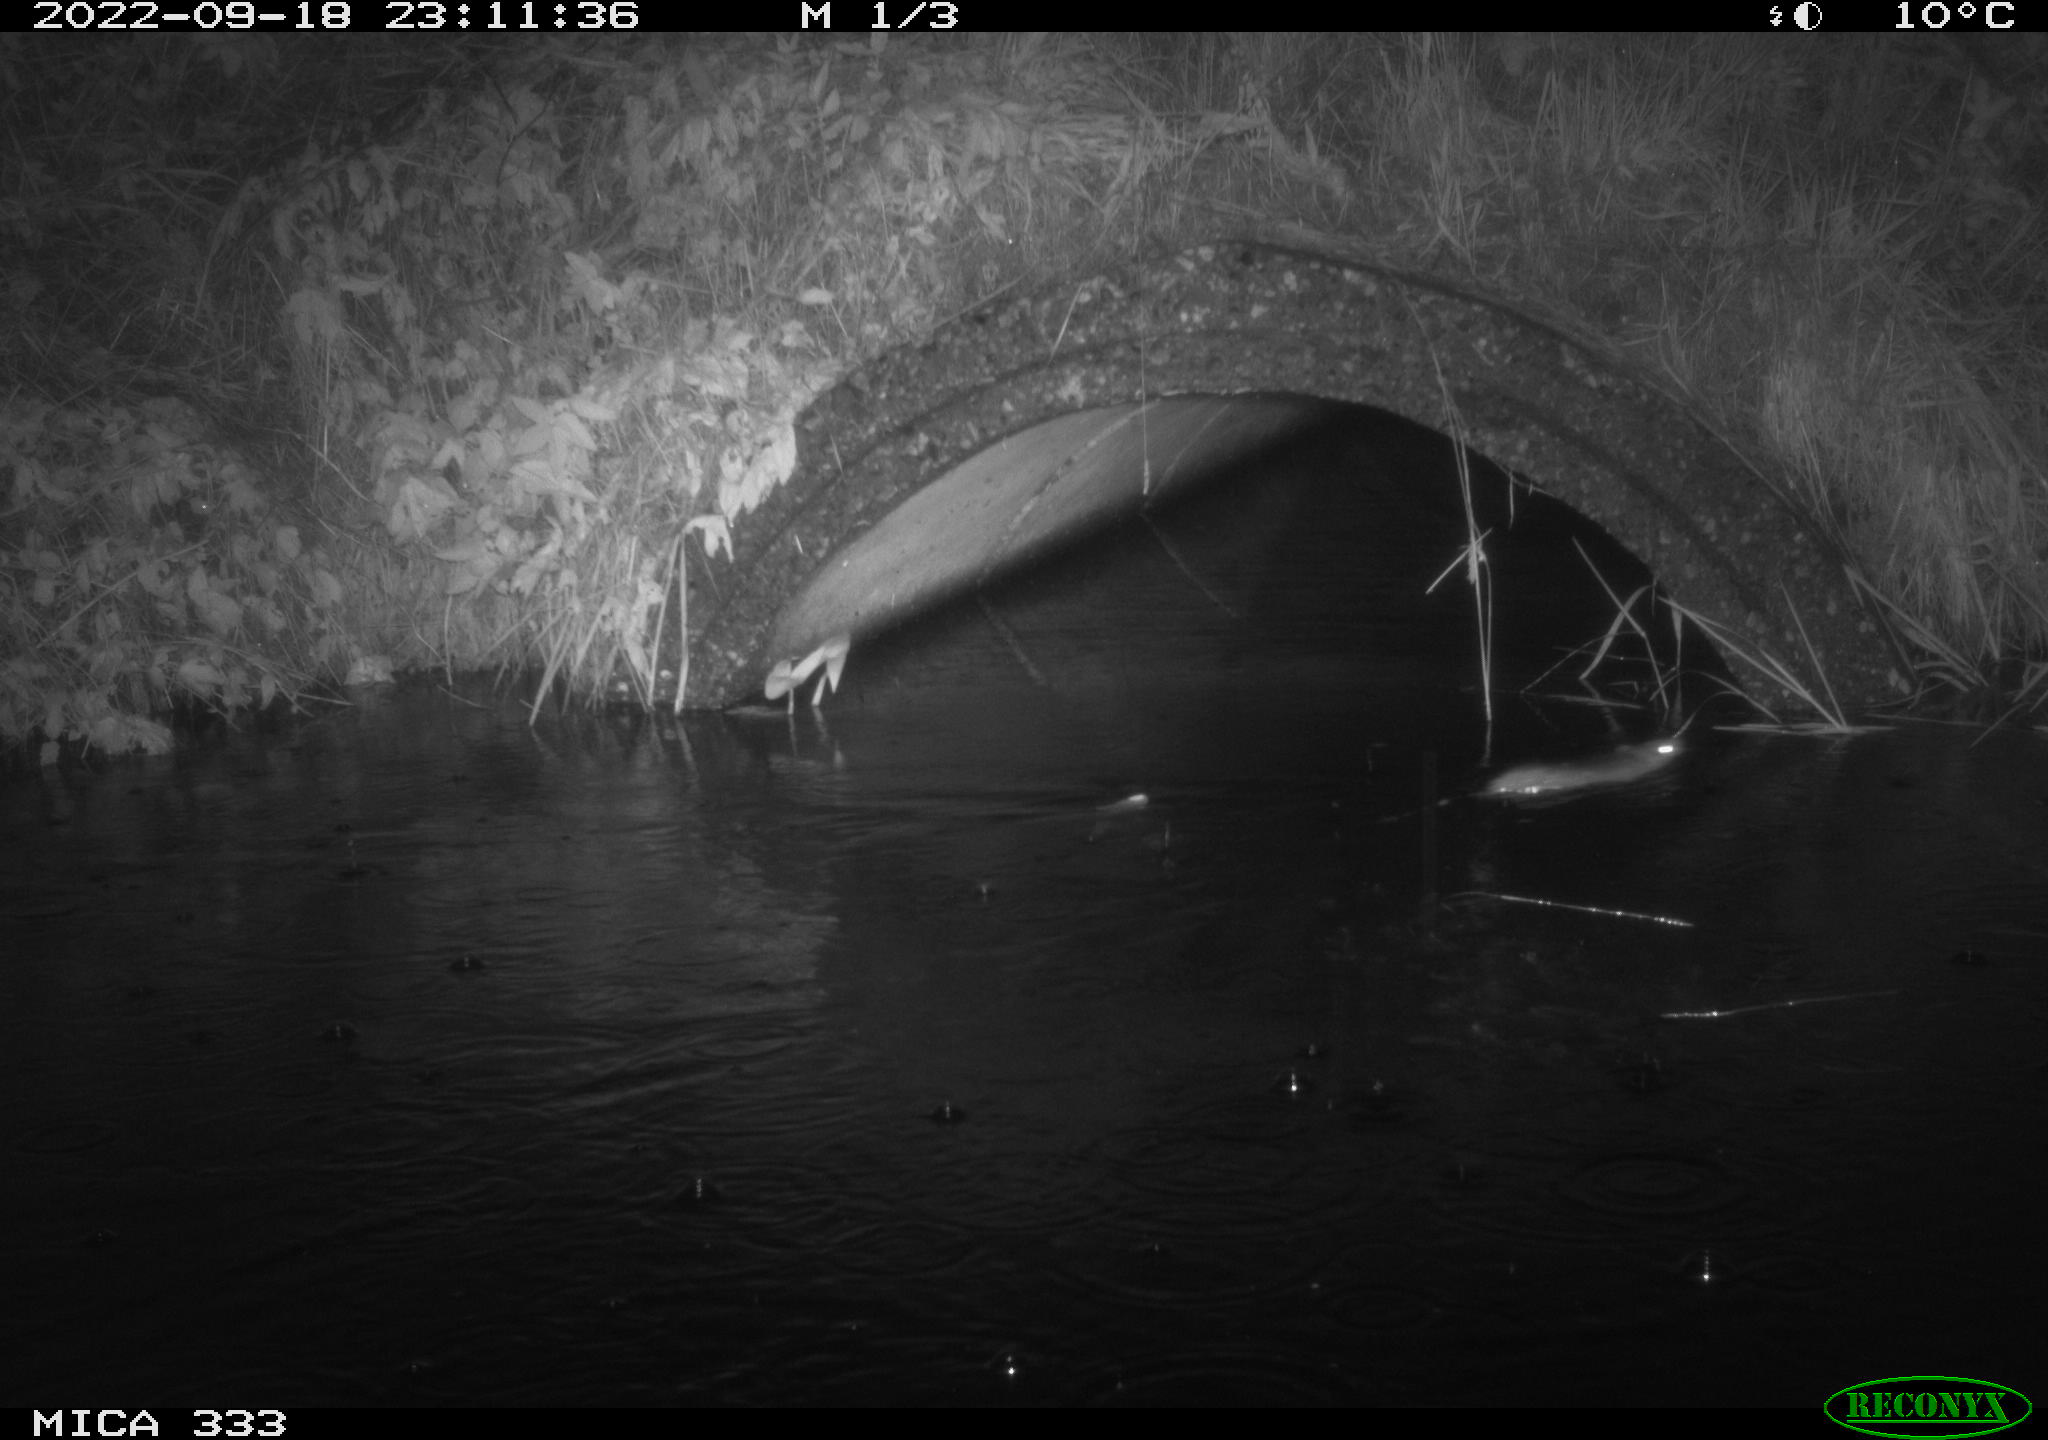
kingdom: Animalia
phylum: Chordata
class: Mammalia
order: Rodentia
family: Muridae
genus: Rattus
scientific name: Rattus norvegicus
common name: Brown rat
